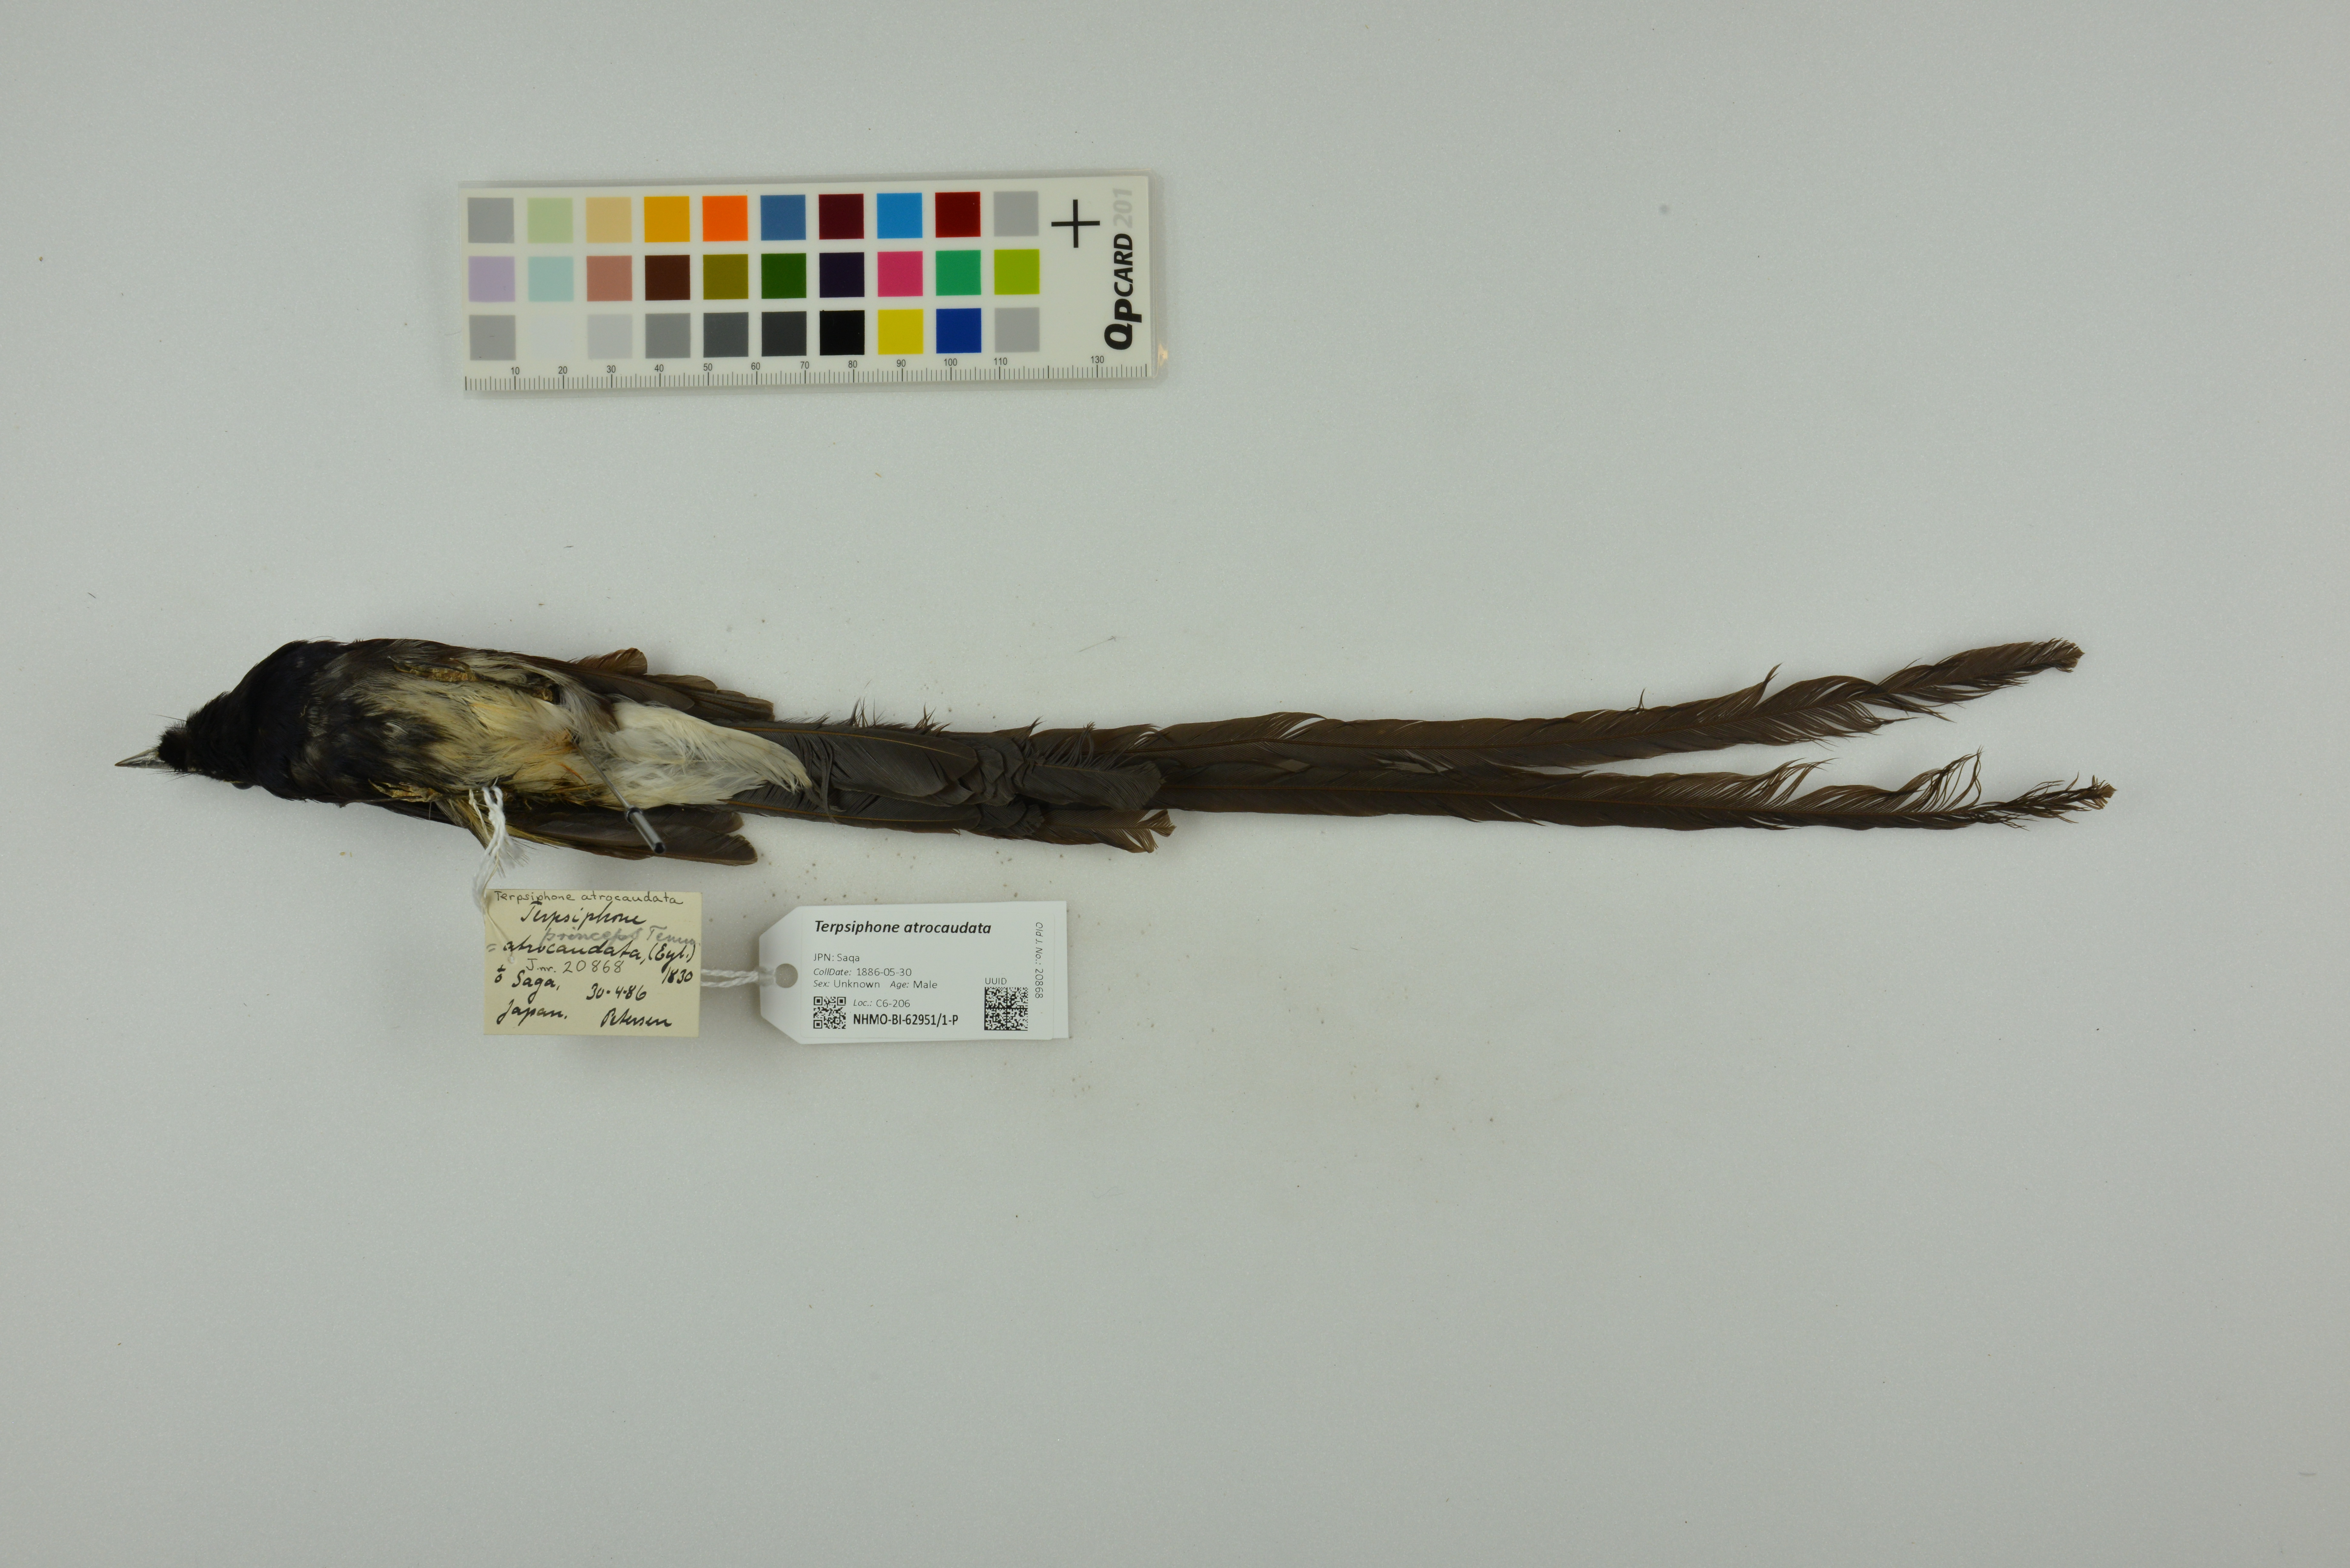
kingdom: Animalia
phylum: Chordata
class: Aves
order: Passeriformes
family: Monarchidae
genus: Terpsiphone
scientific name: Terpsiphone atrocaudata
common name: Japanese paradise flycatcher
